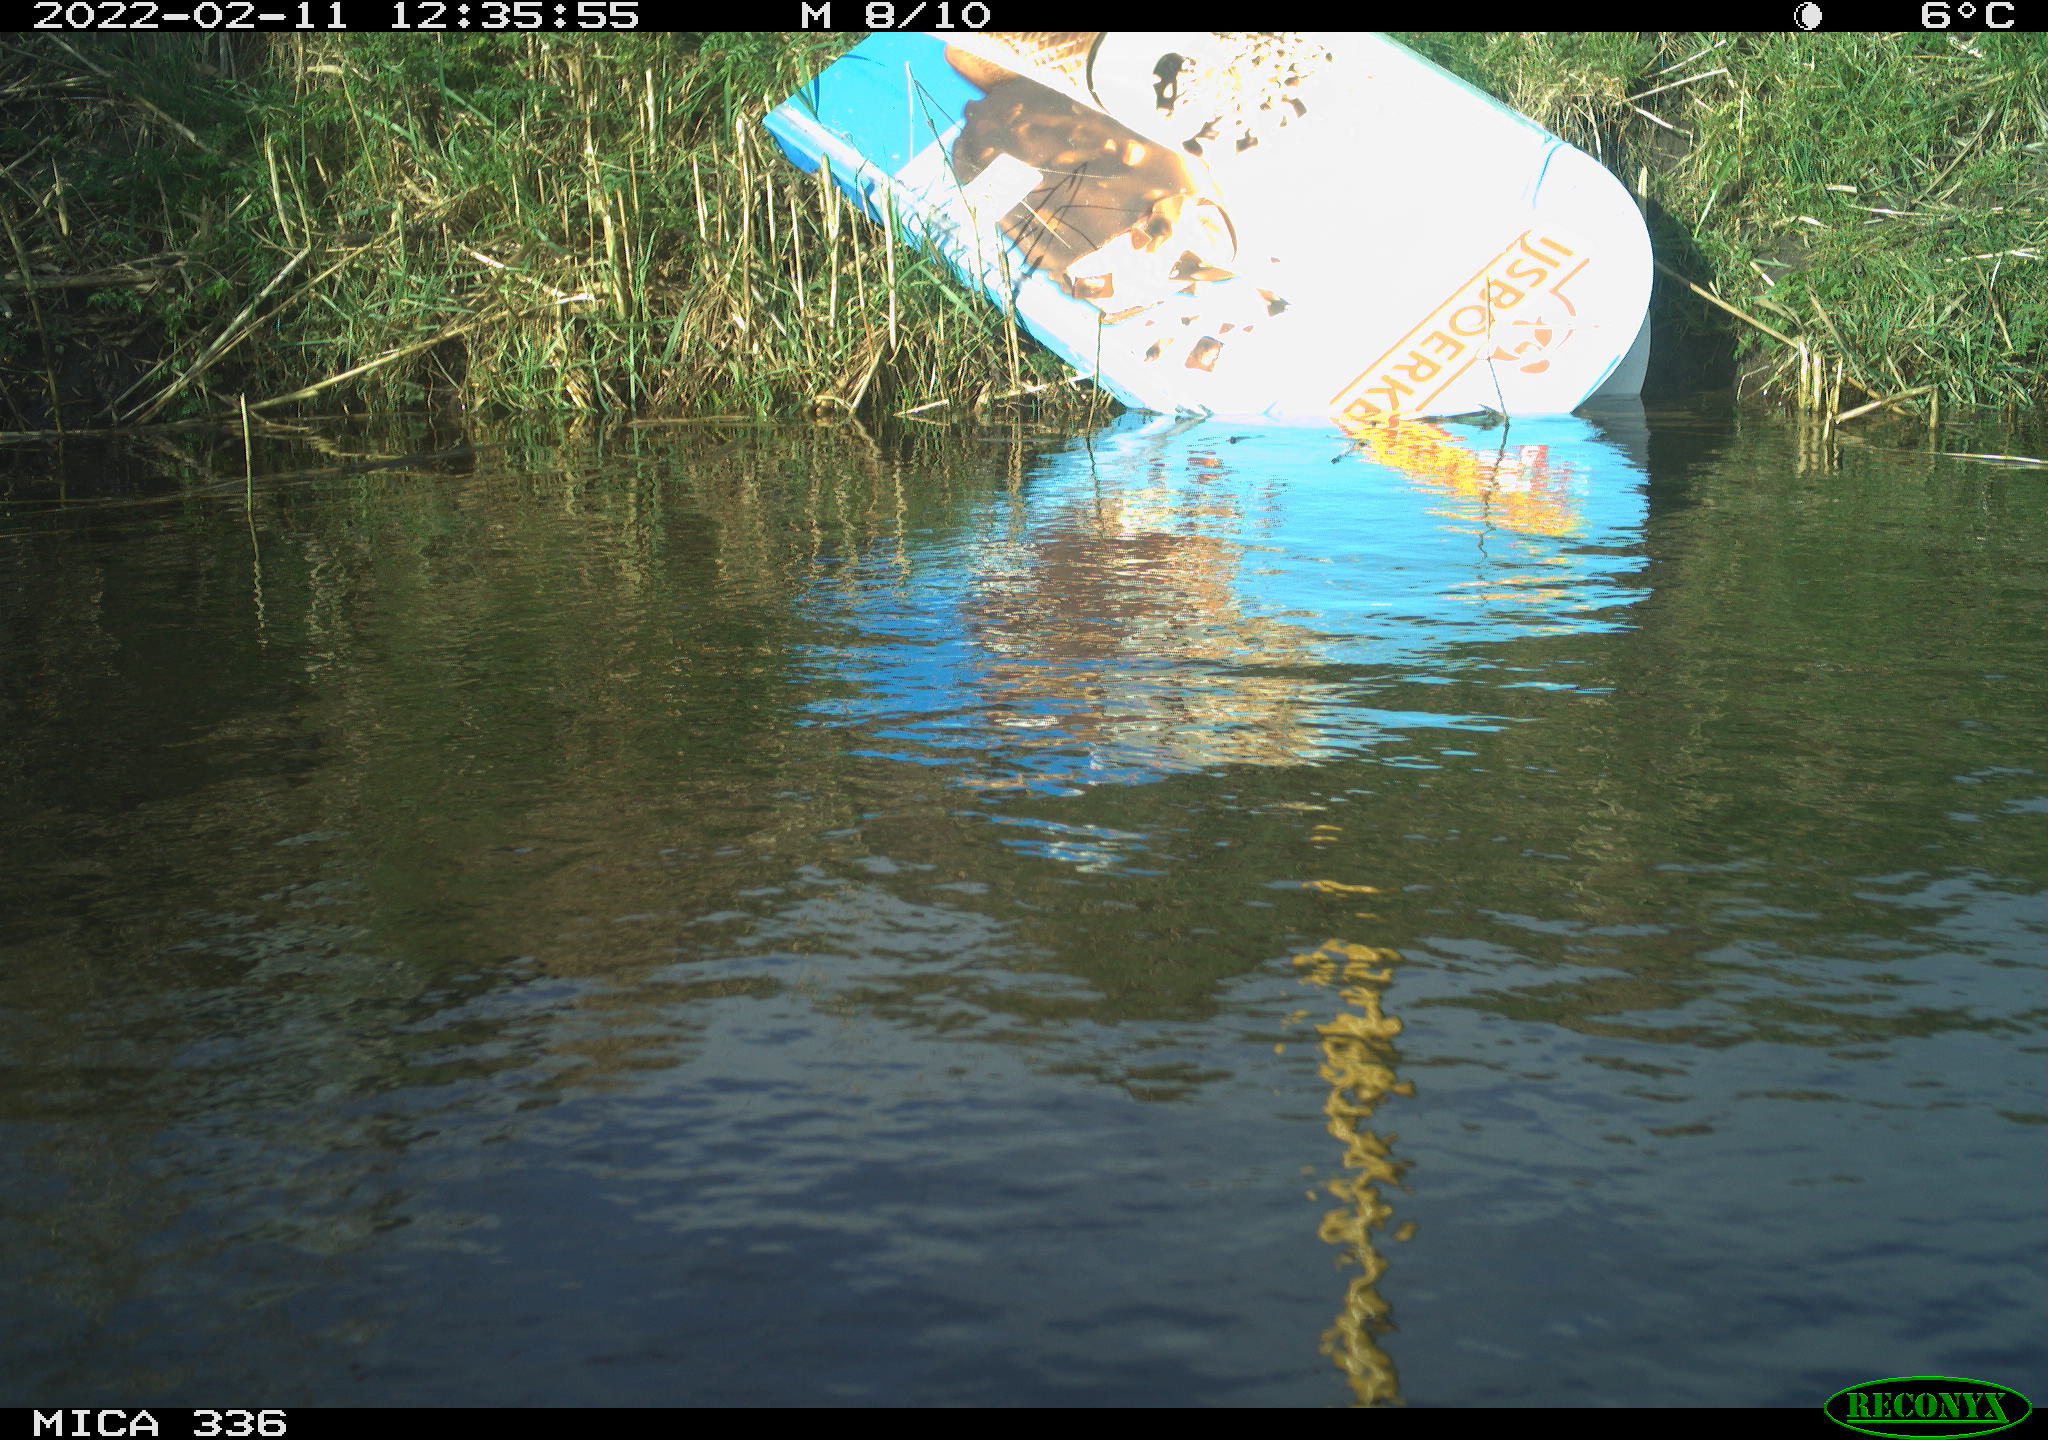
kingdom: Animalia
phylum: Chordata
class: Aves
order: Gruiformes
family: Rallidae
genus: Gallinula
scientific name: Gallinula chloropus
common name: Common moorhen
